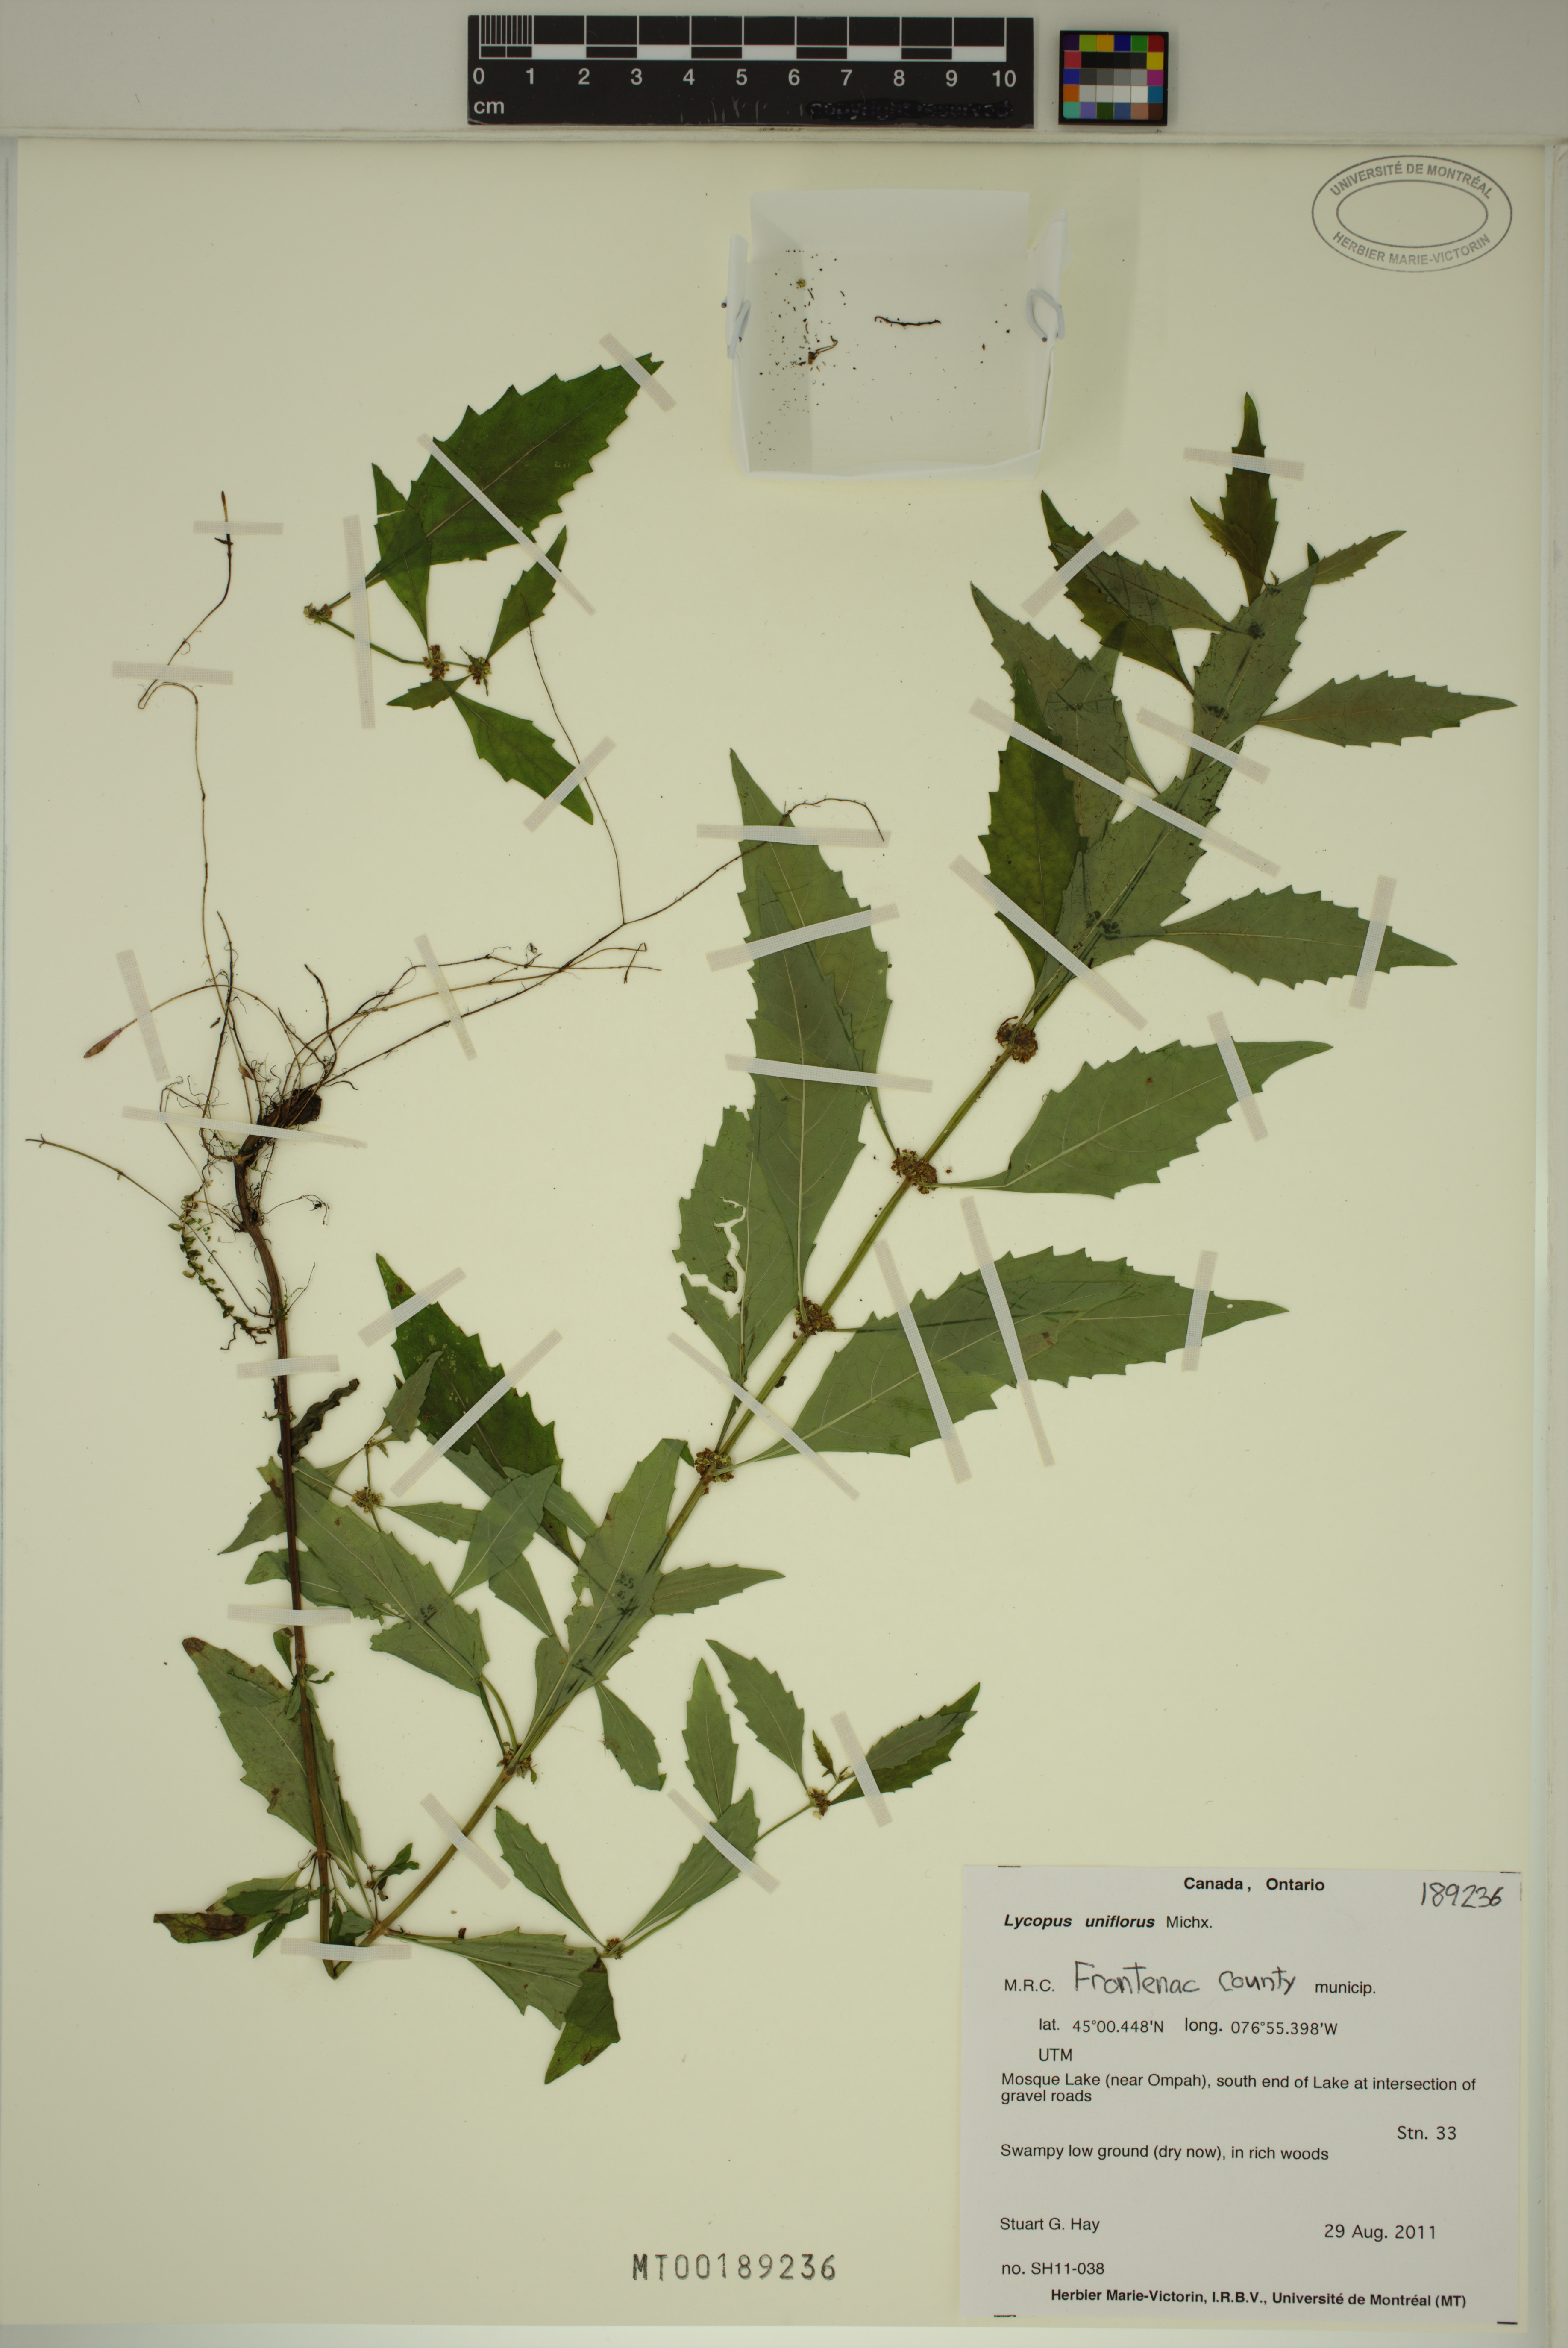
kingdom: Plantae
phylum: Tracheophyta
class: Magnoliopsida
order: Lamiales
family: Lamiaceae
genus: Lycopus
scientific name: Lycopus uniflorus
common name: Northern bugleweed
